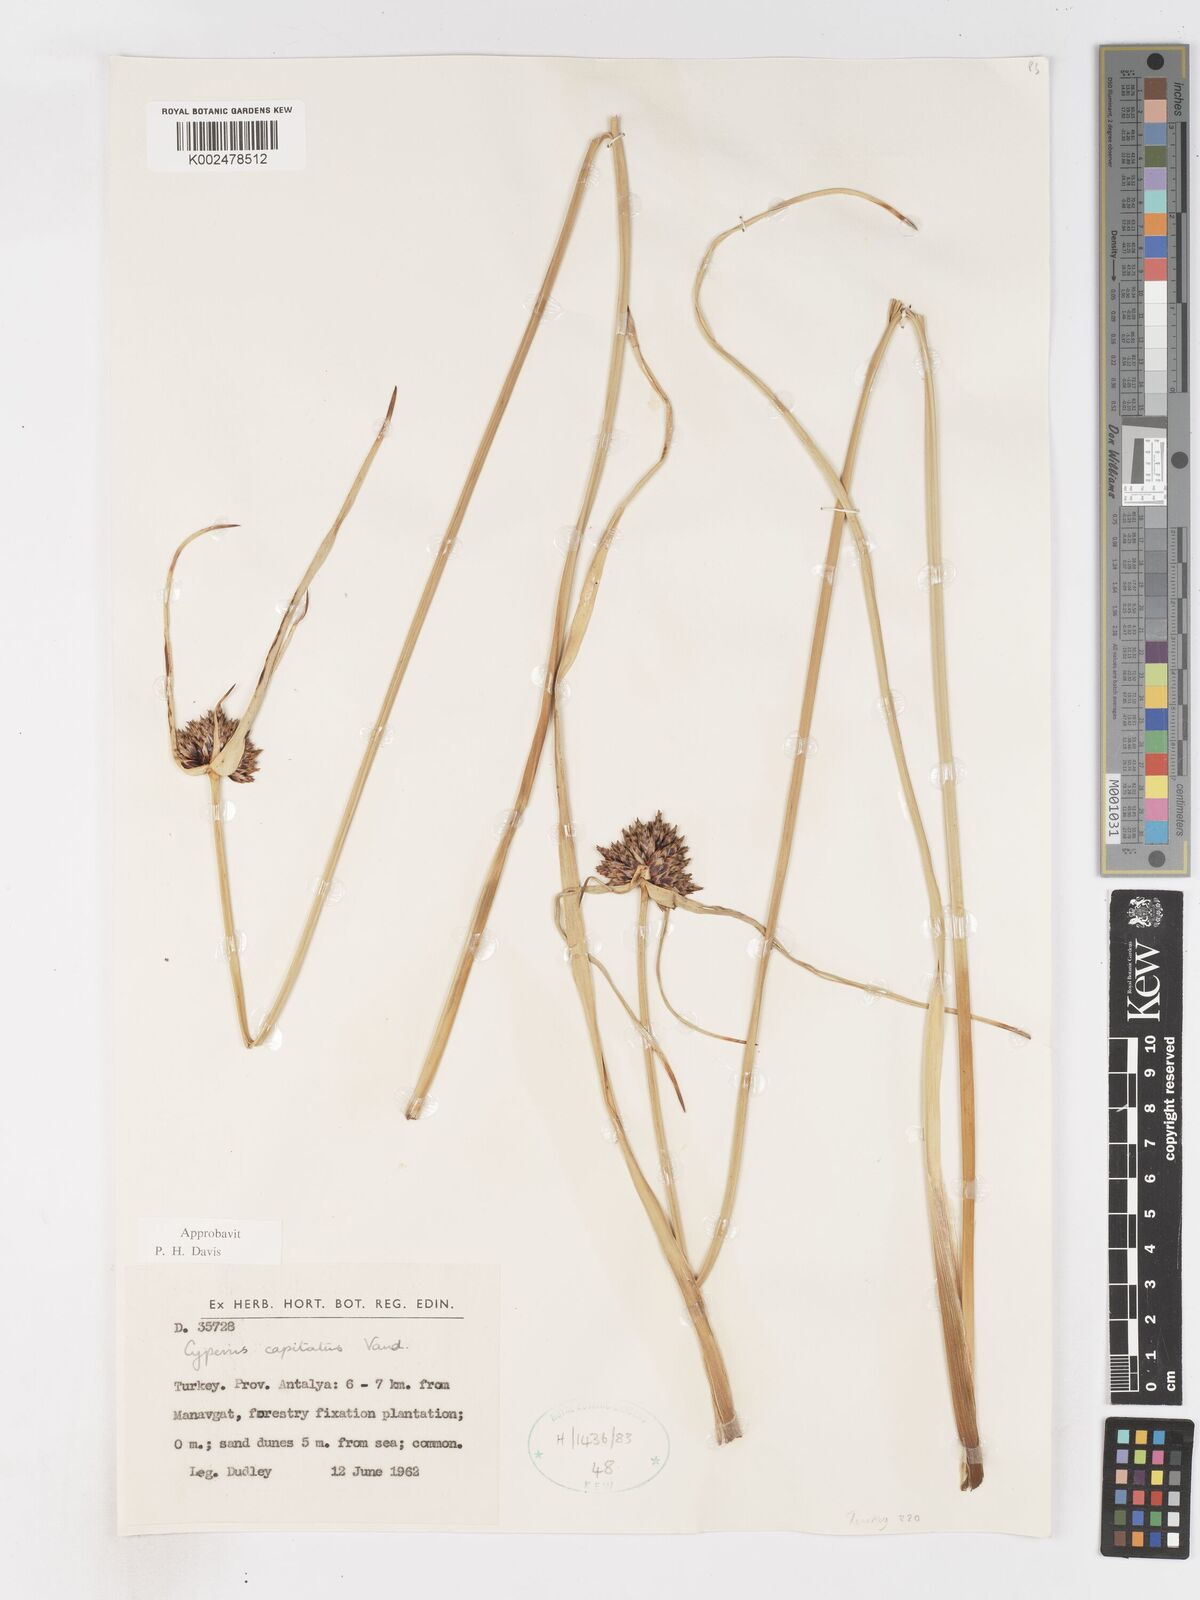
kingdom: Plantae
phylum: Tracheophyta
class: Liliopsida
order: Poales
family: Cyperaceae
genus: Cyperus
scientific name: Cyperus capitatus
